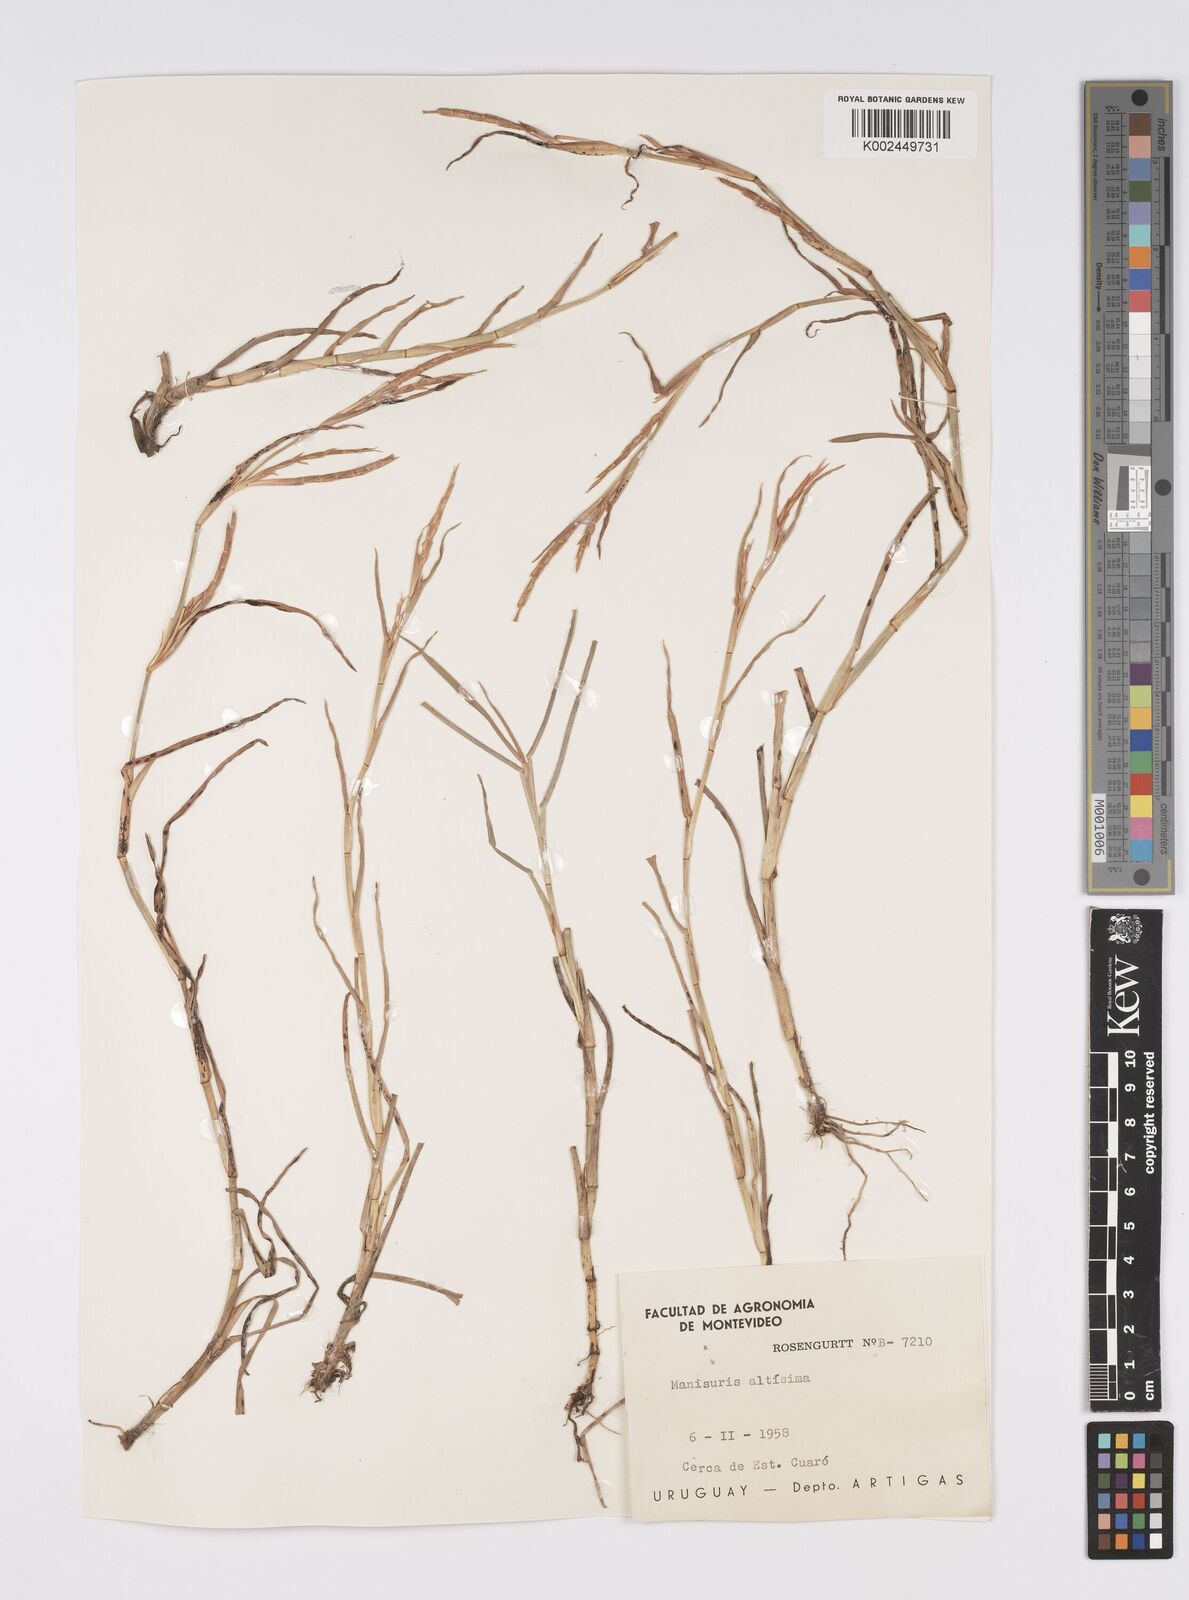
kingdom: Plantae
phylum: Tracheophyta
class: Liliopsida
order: Poales
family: Poaceae
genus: Hemarthria
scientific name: Hemarthria altissima
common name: African jointgrass
